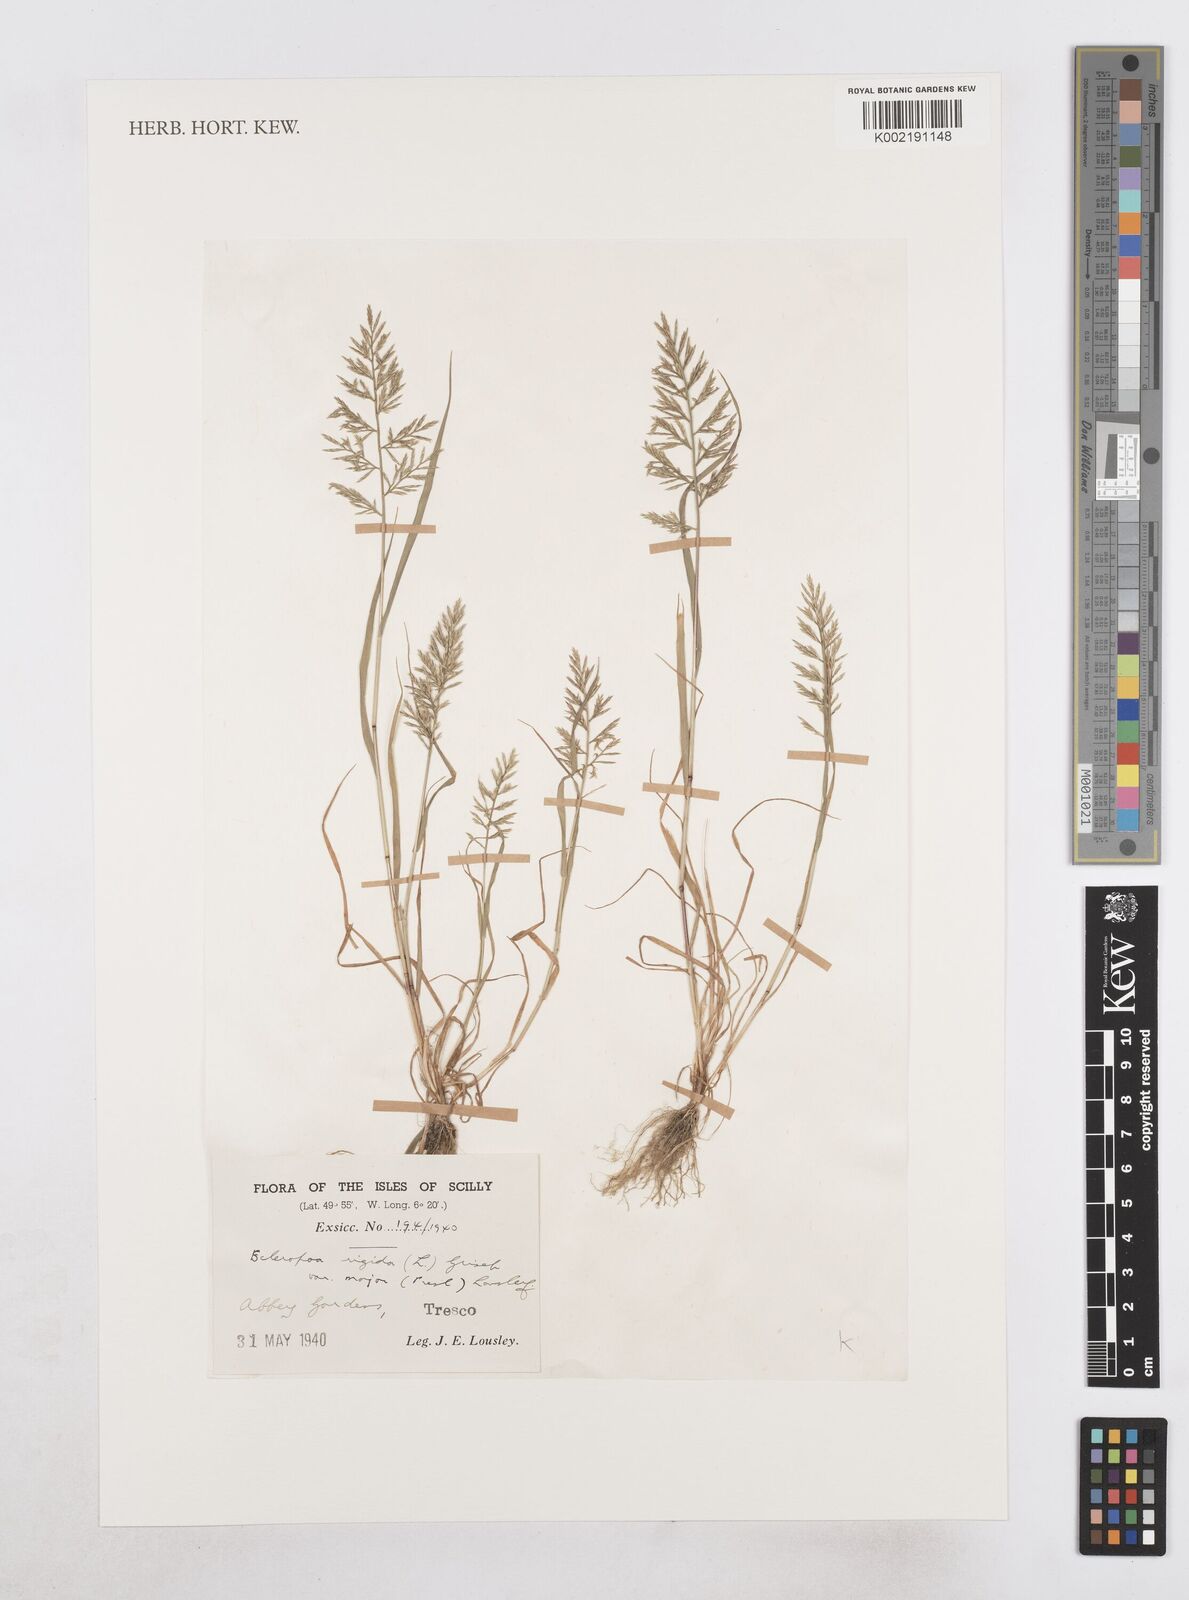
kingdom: Plantae
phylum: Tracheophyta
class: Liliopsida
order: Poales
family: Poaceae
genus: Catapodium
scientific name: Catapodium rigidum
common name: Fern-grass
